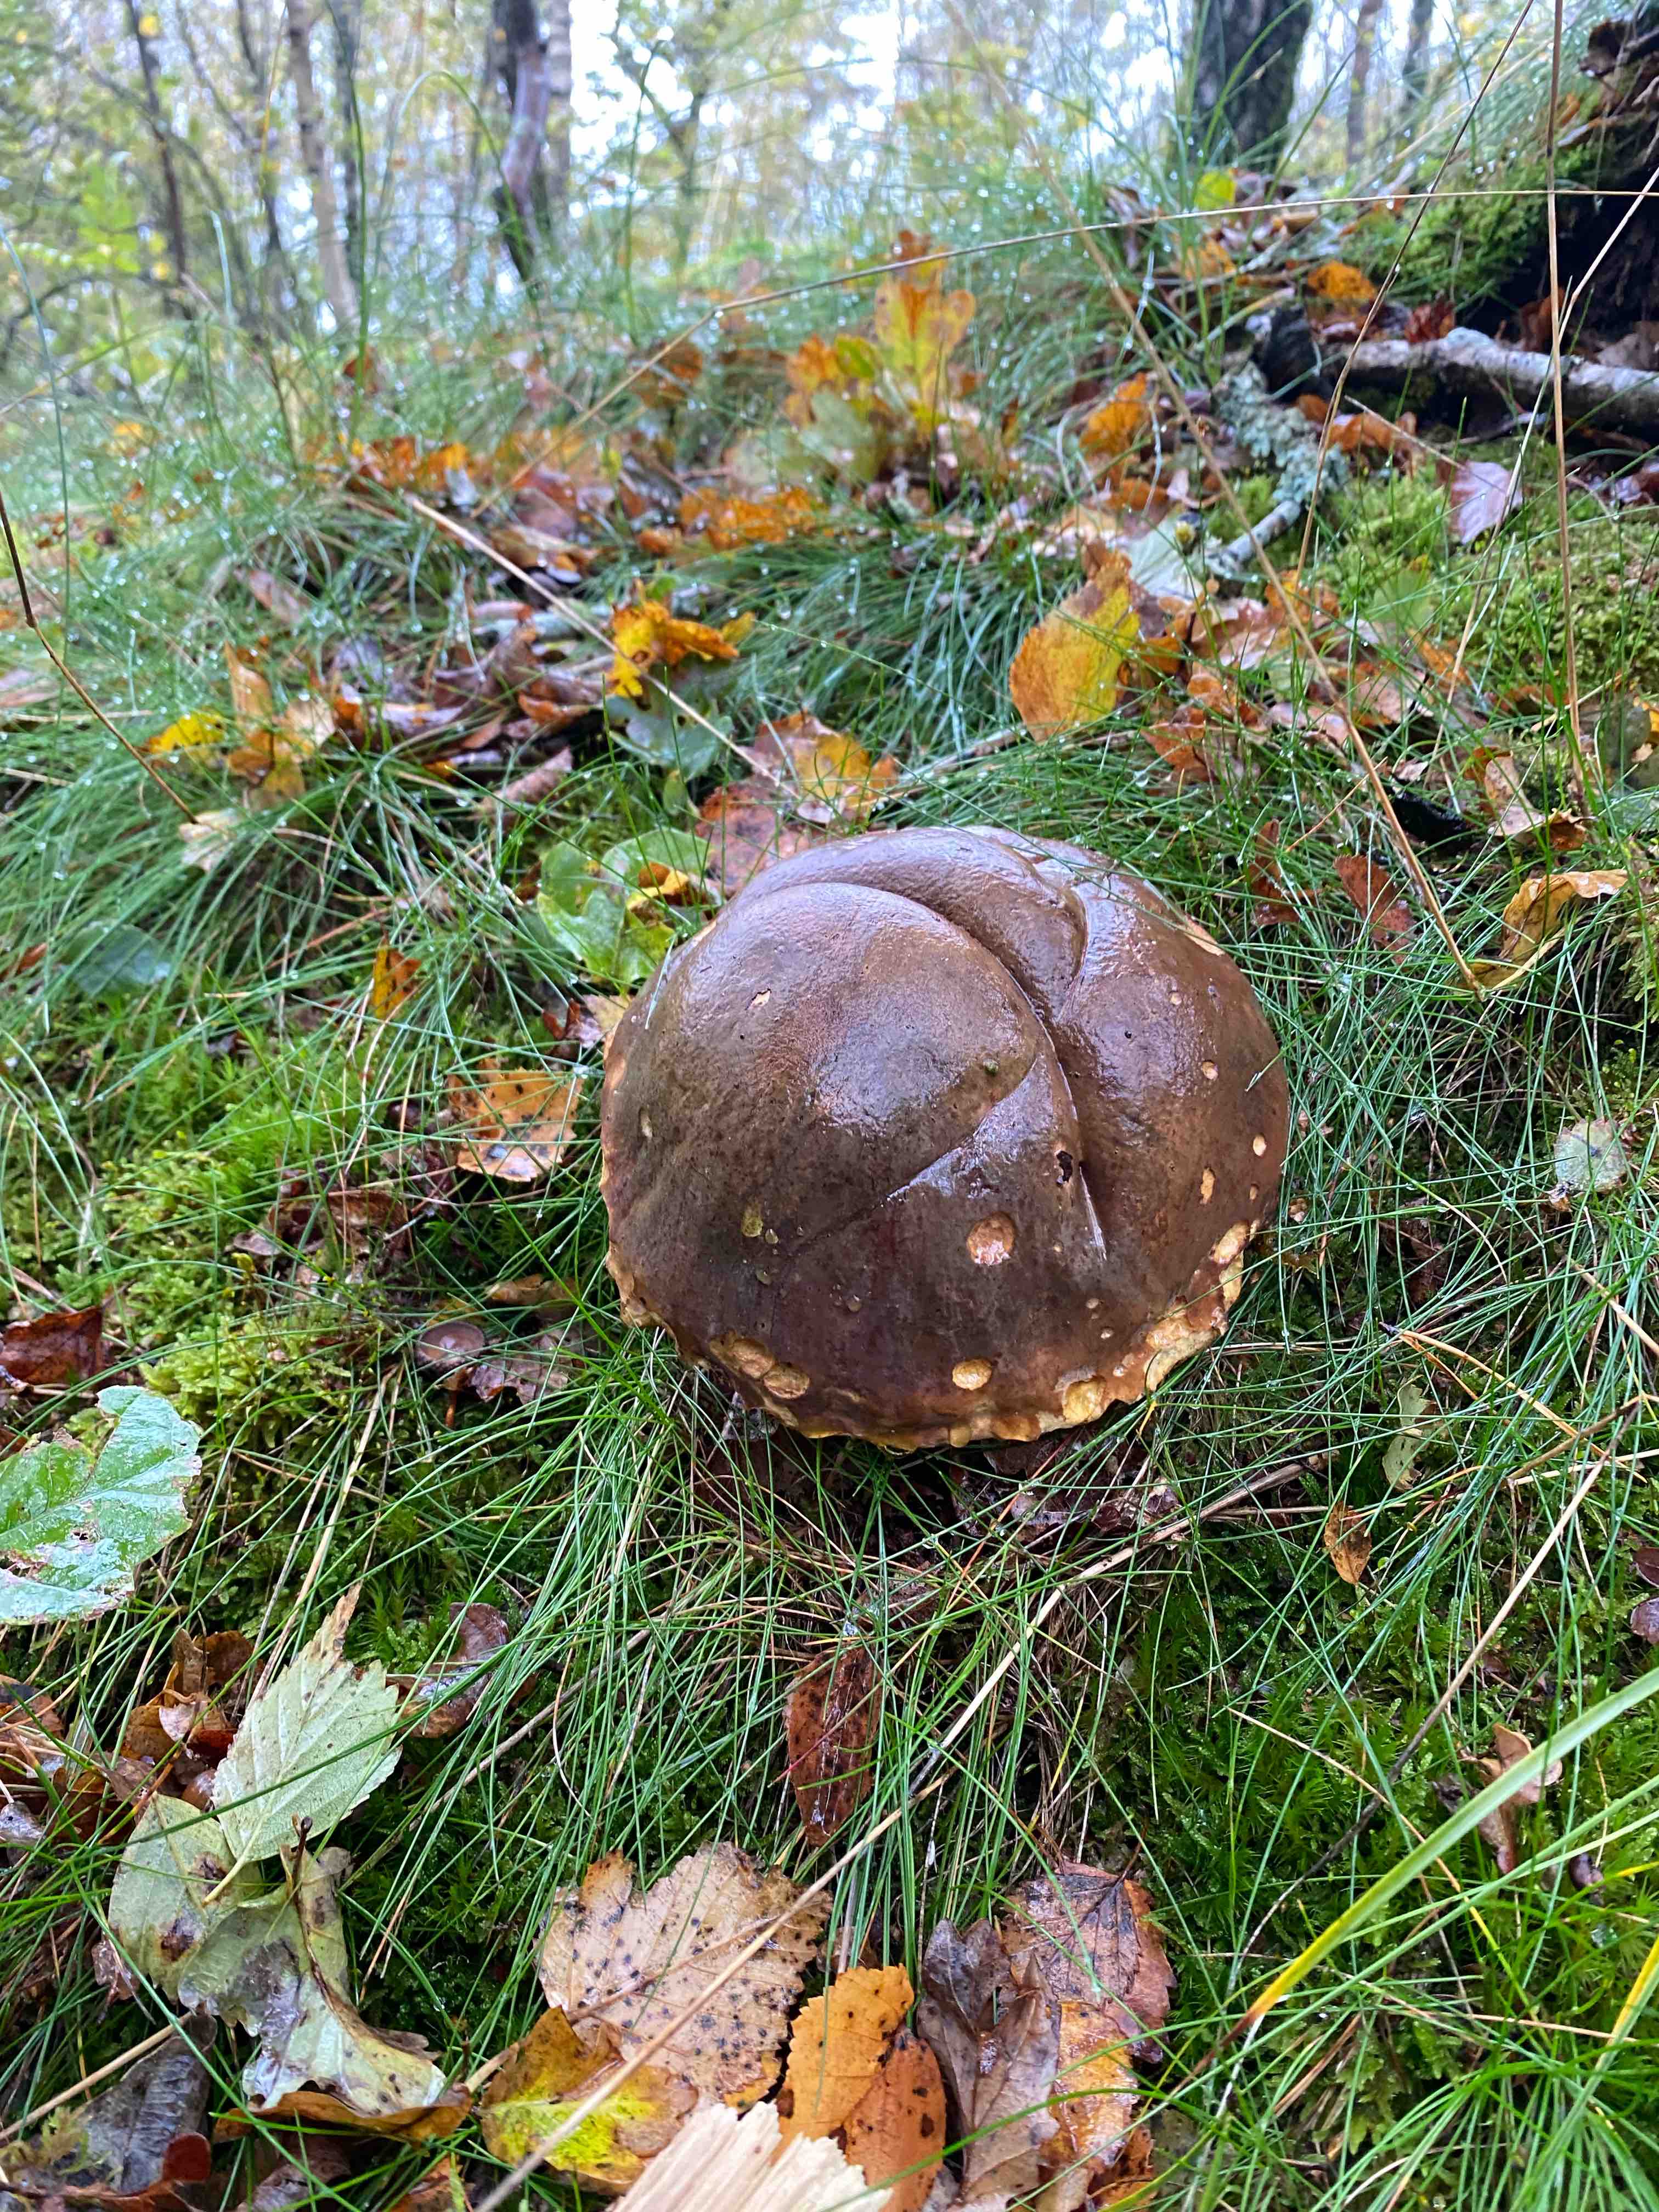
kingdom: Fungi
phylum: Basidiomycota
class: Agaricomycetes
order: Boletales
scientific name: Boletales
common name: rørhatordenen
